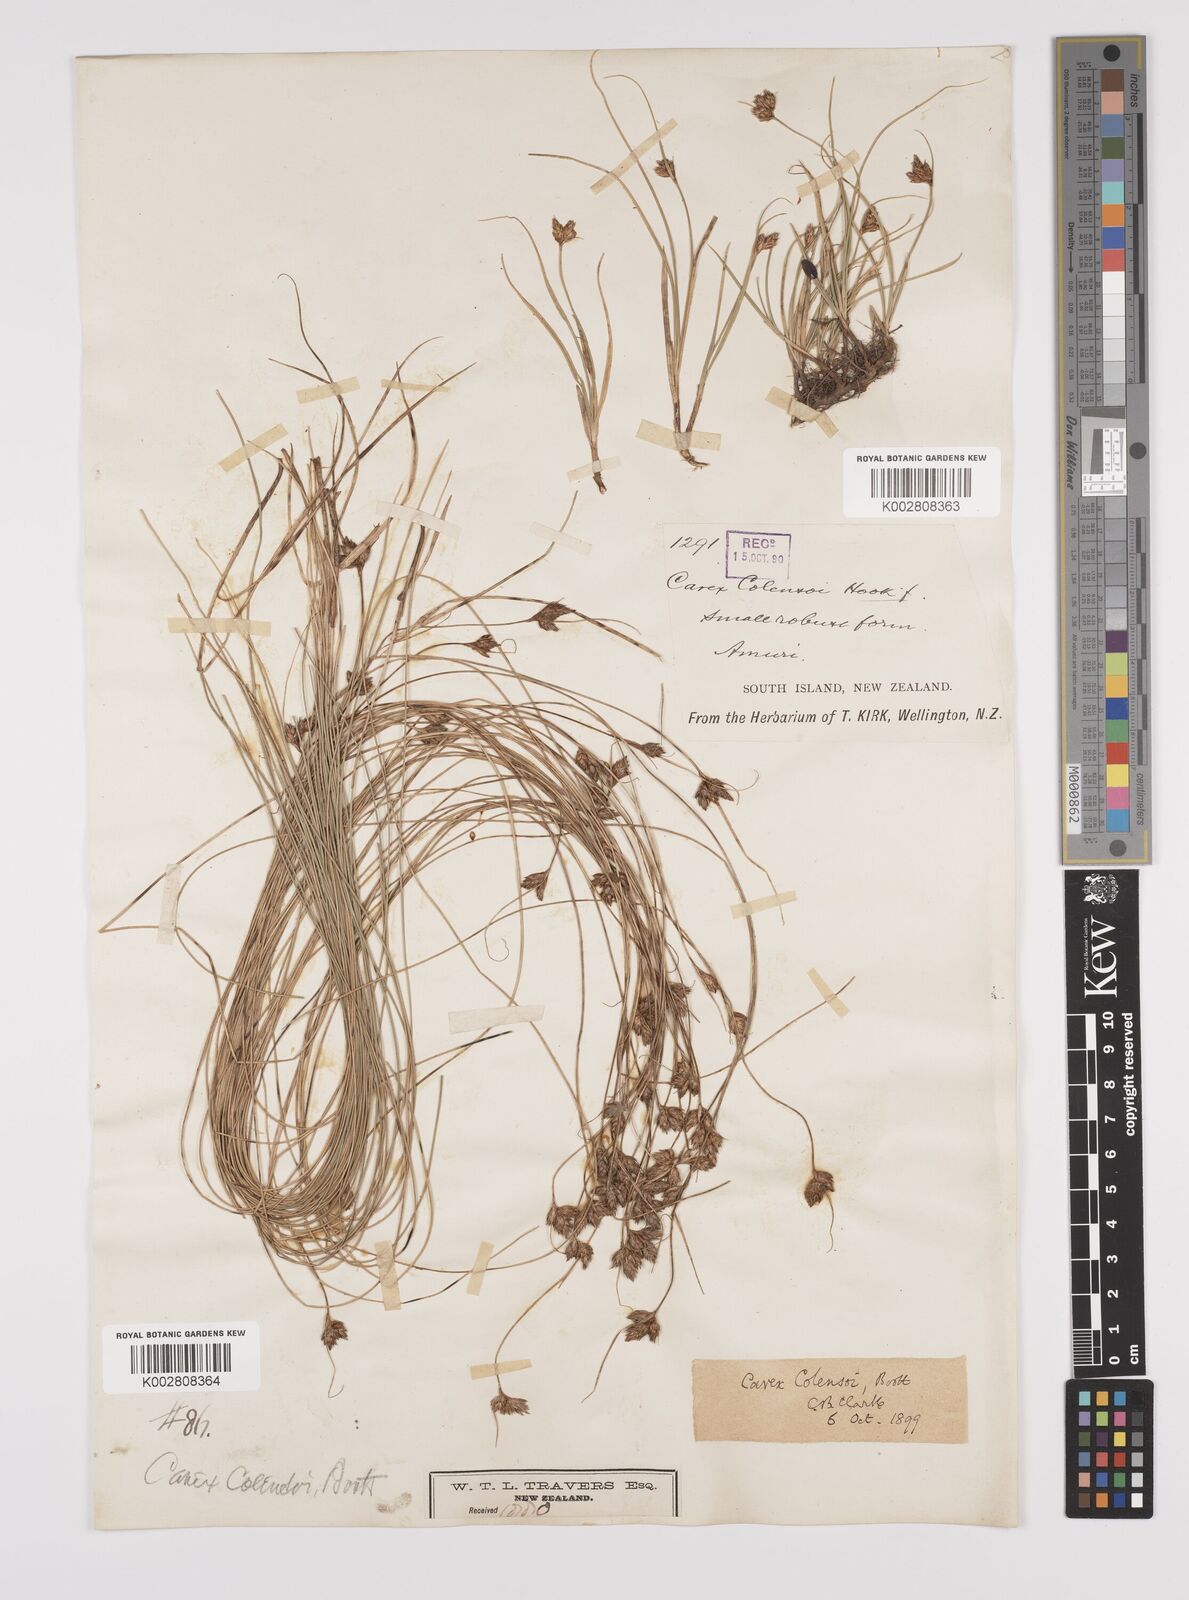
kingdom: Plantae
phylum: Tracheophyta
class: Liliopsida
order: Poales
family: Cyperaceae
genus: Carex
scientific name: Carex colensoi
